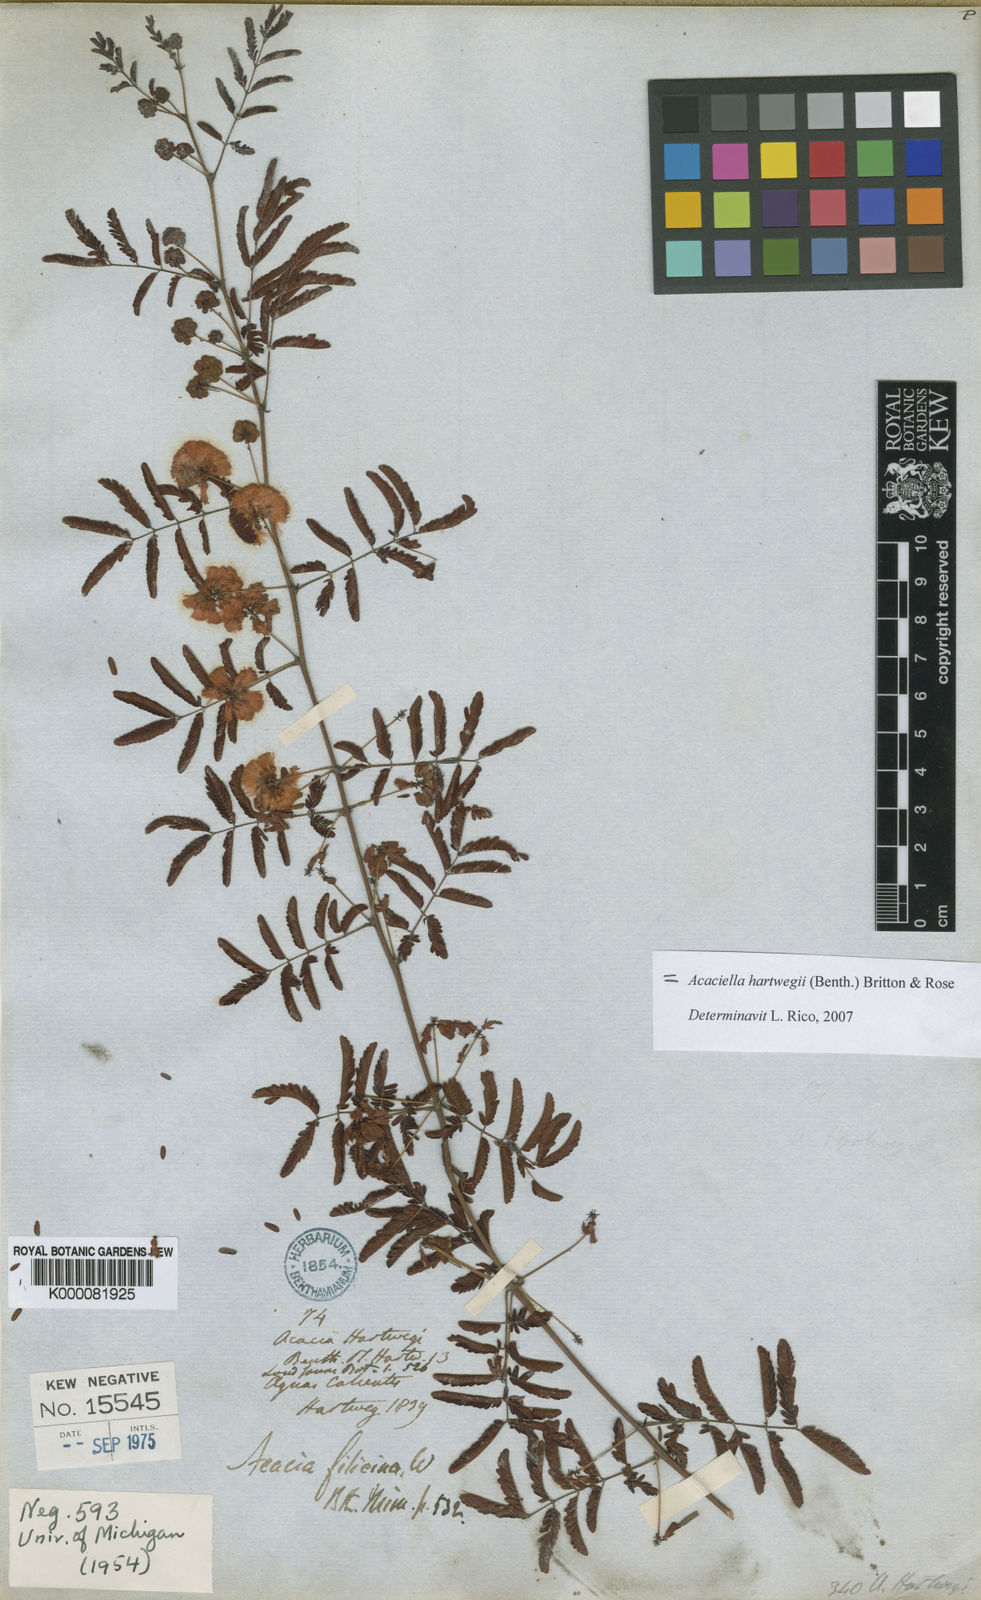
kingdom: Plantae
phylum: Tracheophyta
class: Magnoliopsida
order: Fabales
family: Fabaceae
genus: Acaciella
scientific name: Acaciella hartwegii
